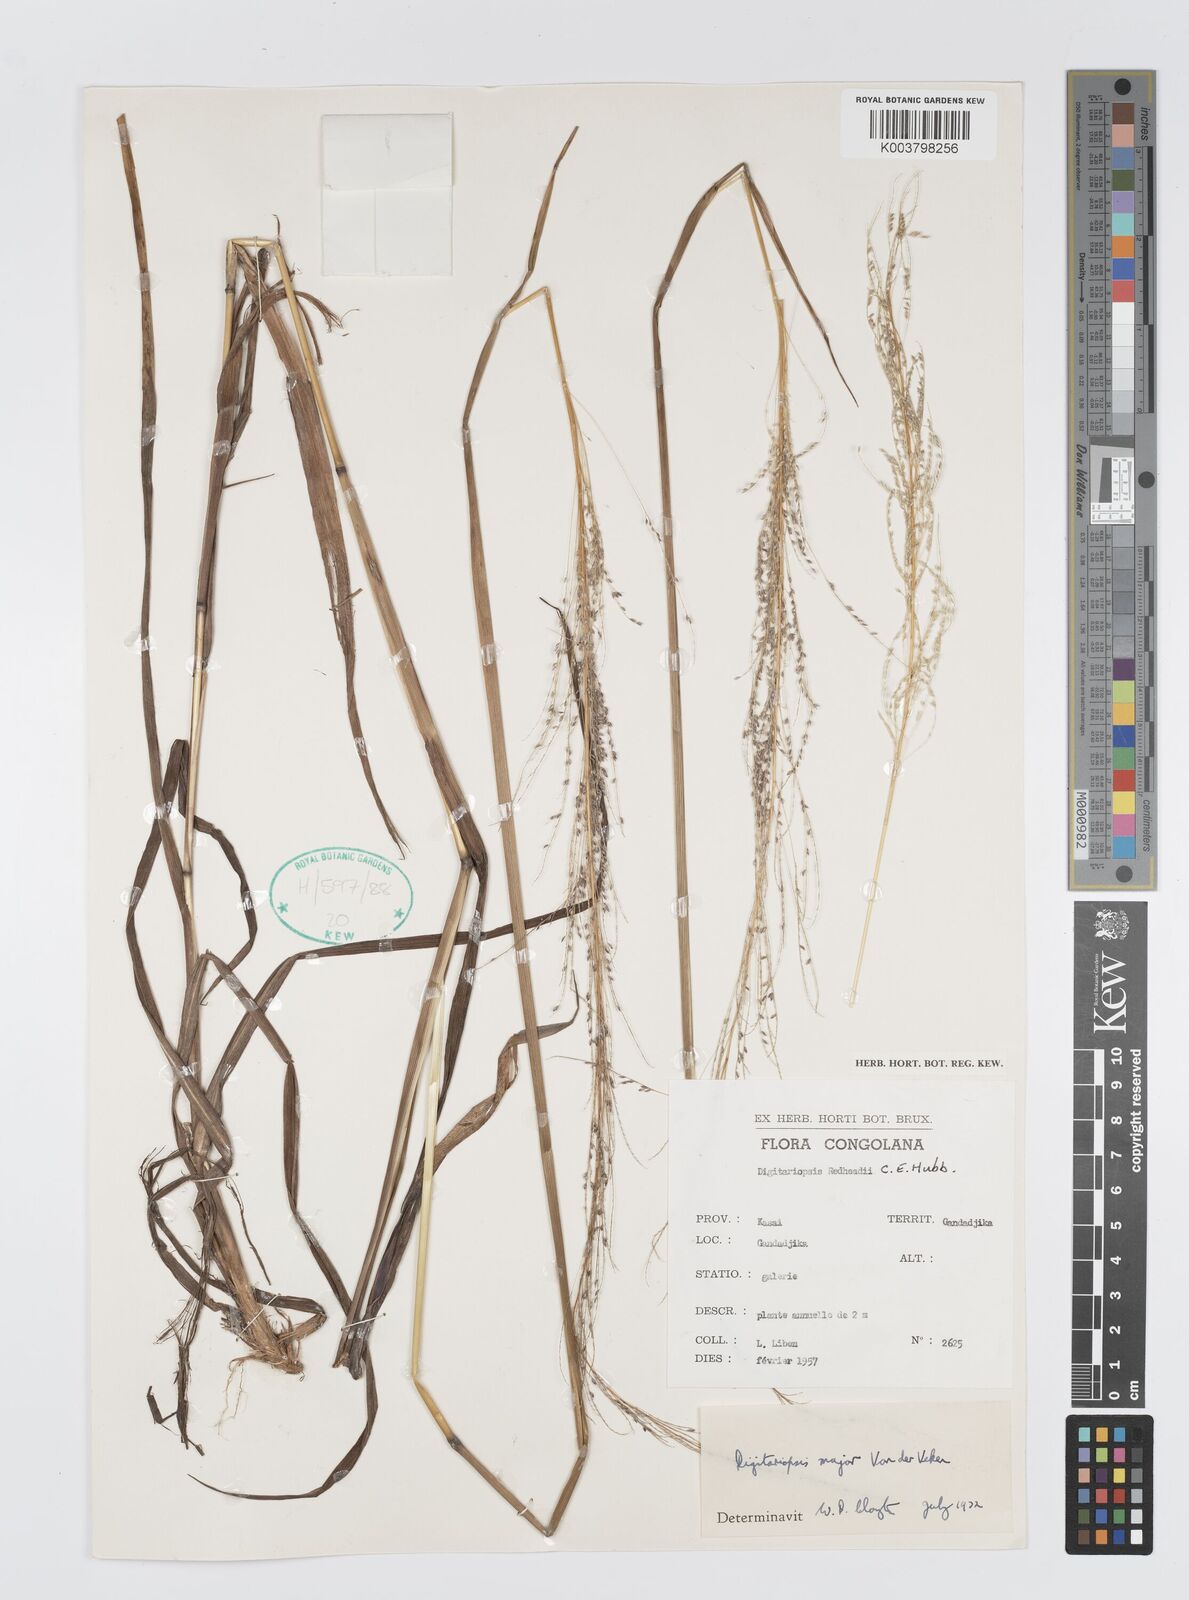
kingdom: Plantae
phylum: Tracheophyta
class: Liliopsida
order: Poales
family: Poaceae
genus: Digitaria
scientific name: Digitaria poggeana
